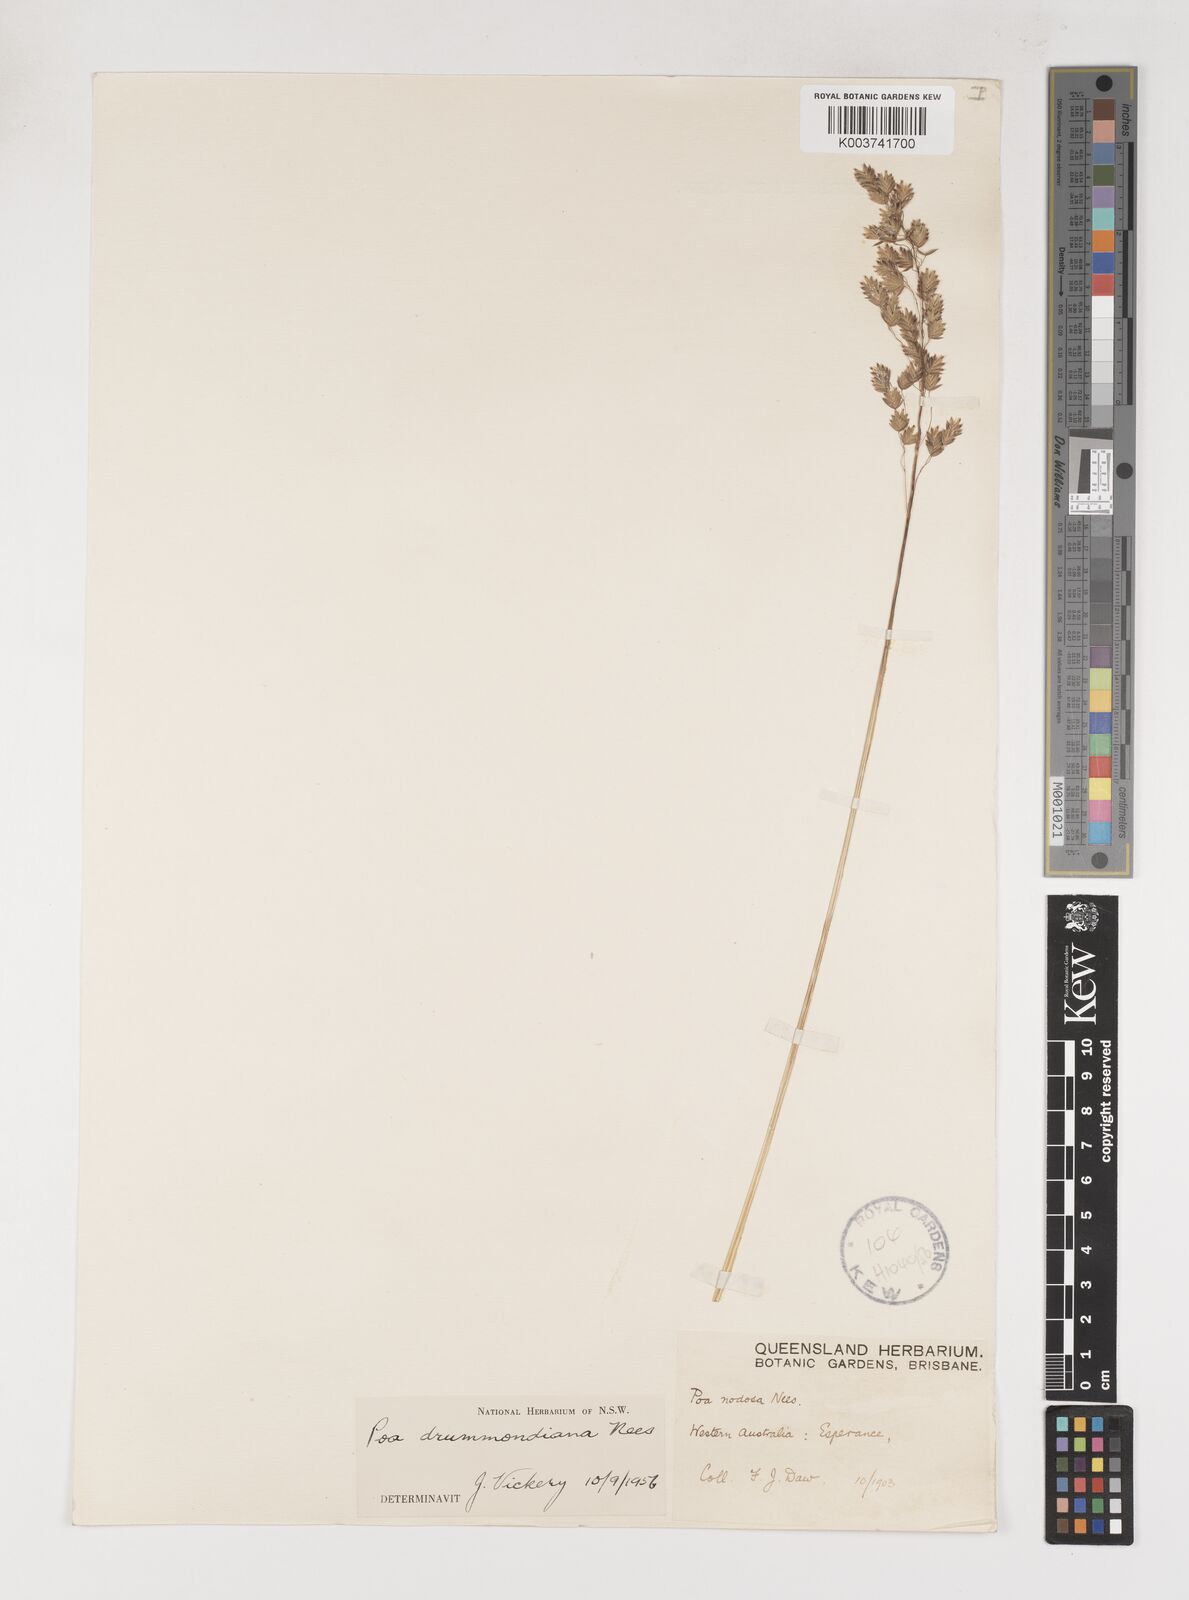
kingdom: Plantae
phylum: Tracheophyta
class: Liliopsida
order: Poales
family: Poaceae
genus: Poa
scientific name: Poa drummondiana
